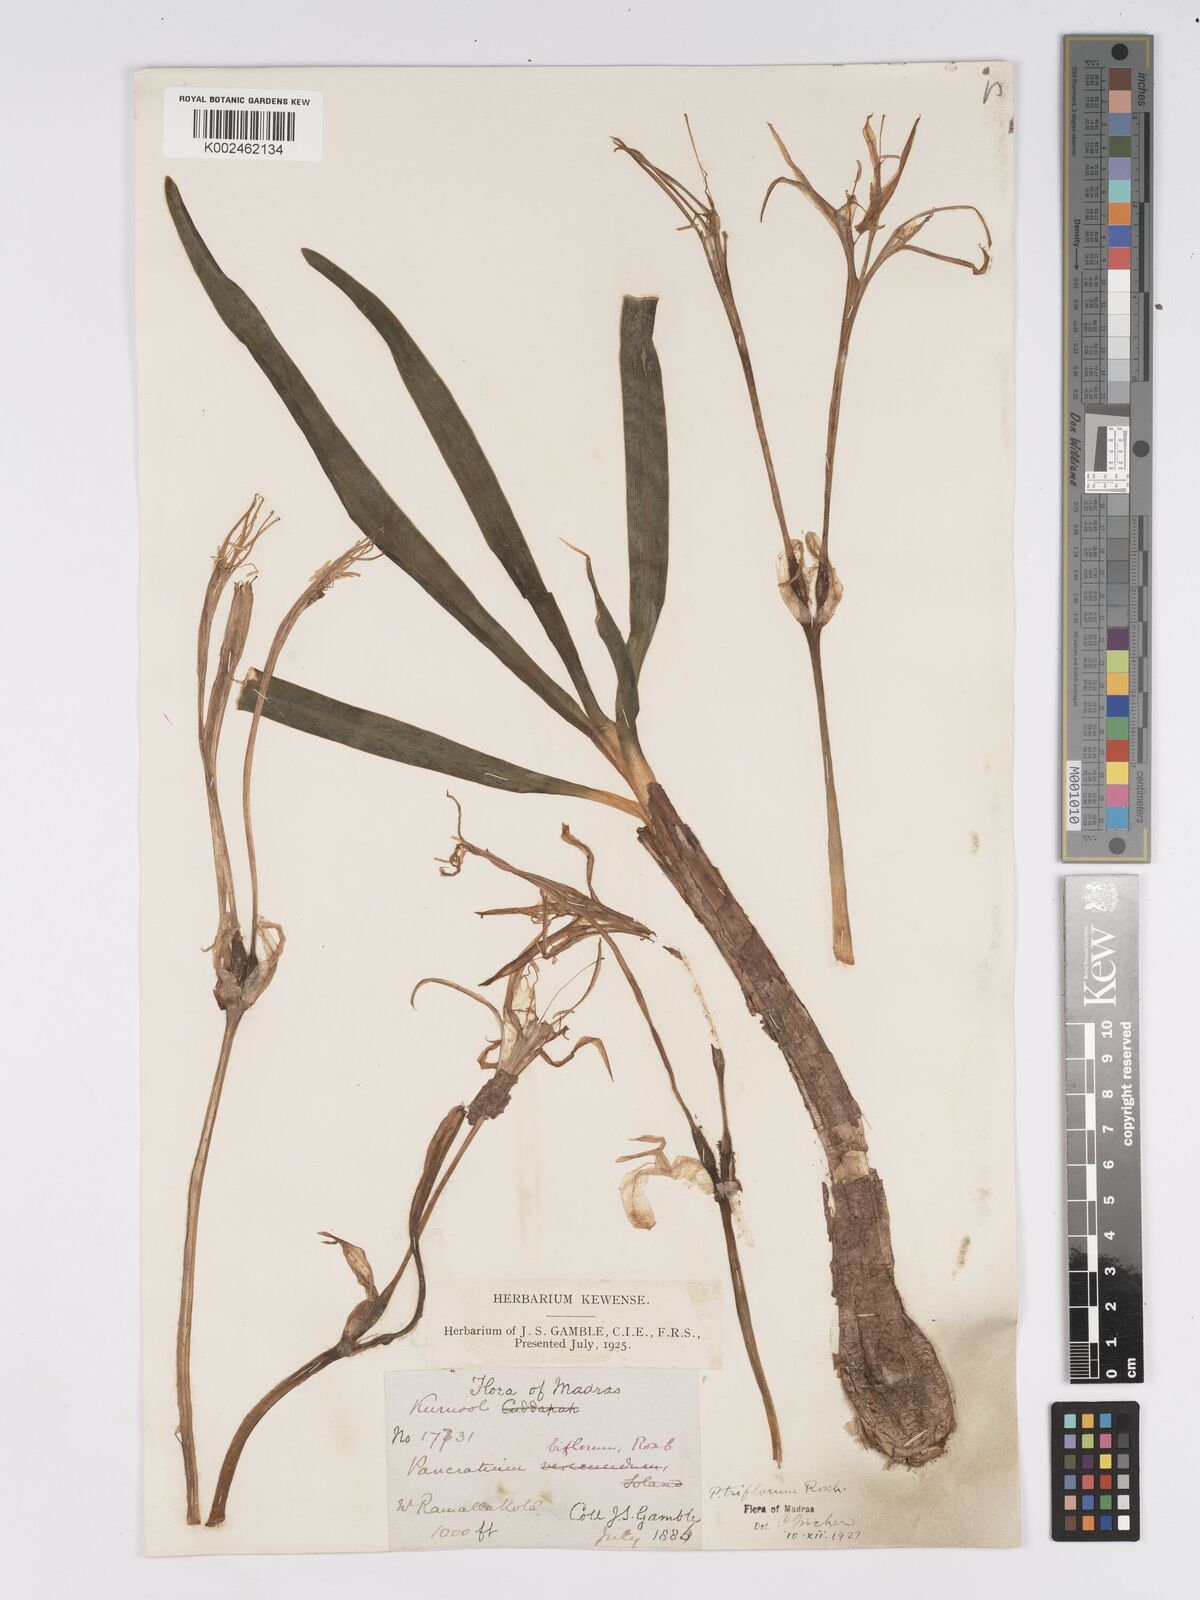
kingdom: Plantae
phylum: Tracheophyta
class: Liliopsida
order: Asparagales
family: Amaryllidaceae
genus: Pancratium
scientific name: Pancratium verecundum
